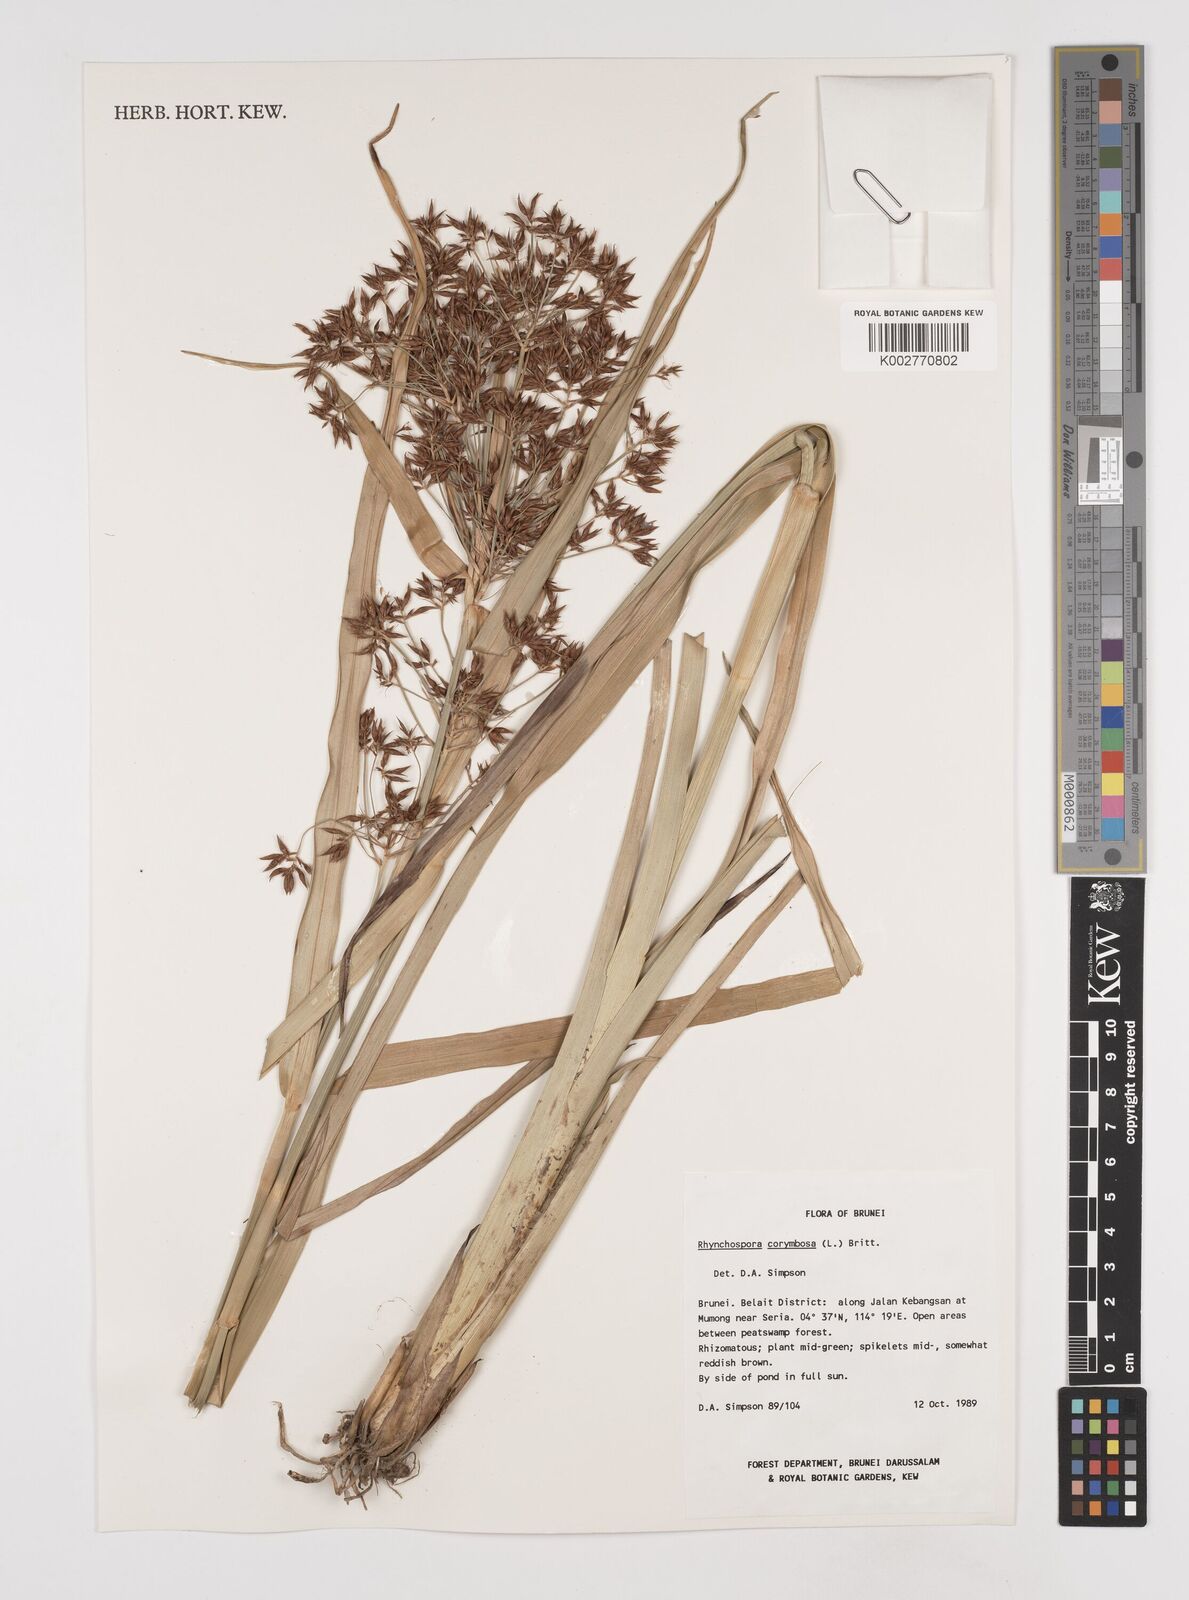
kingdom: Plantae
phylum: Tracheophyta
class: Liliopsida
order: Poales
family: Cyperaceae
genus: Rhynchospora
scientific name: Rhynchospora corymbosa
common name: Golden beak sedge
